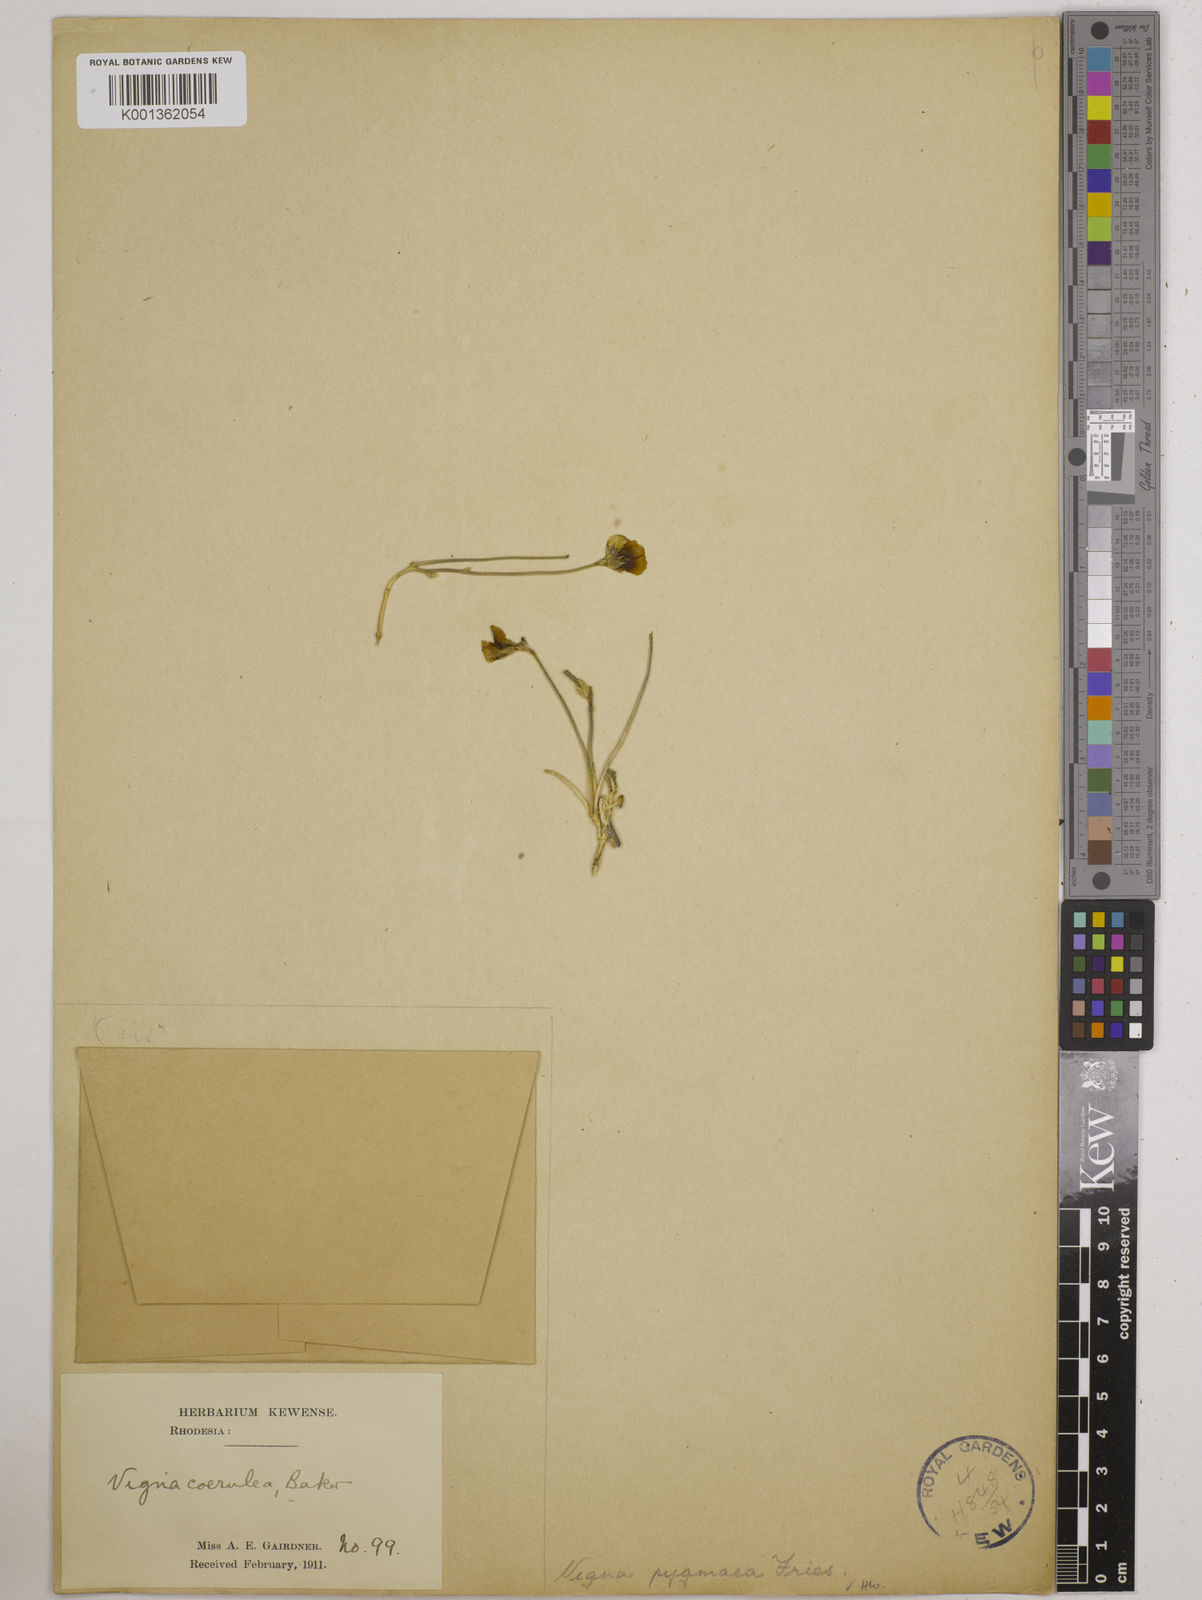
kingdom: Plantae
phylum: Tracheophyta
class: Magnoliopsida
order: Fabales
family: Fabaceae
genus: Vigna
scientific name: Vigna pygmaea
